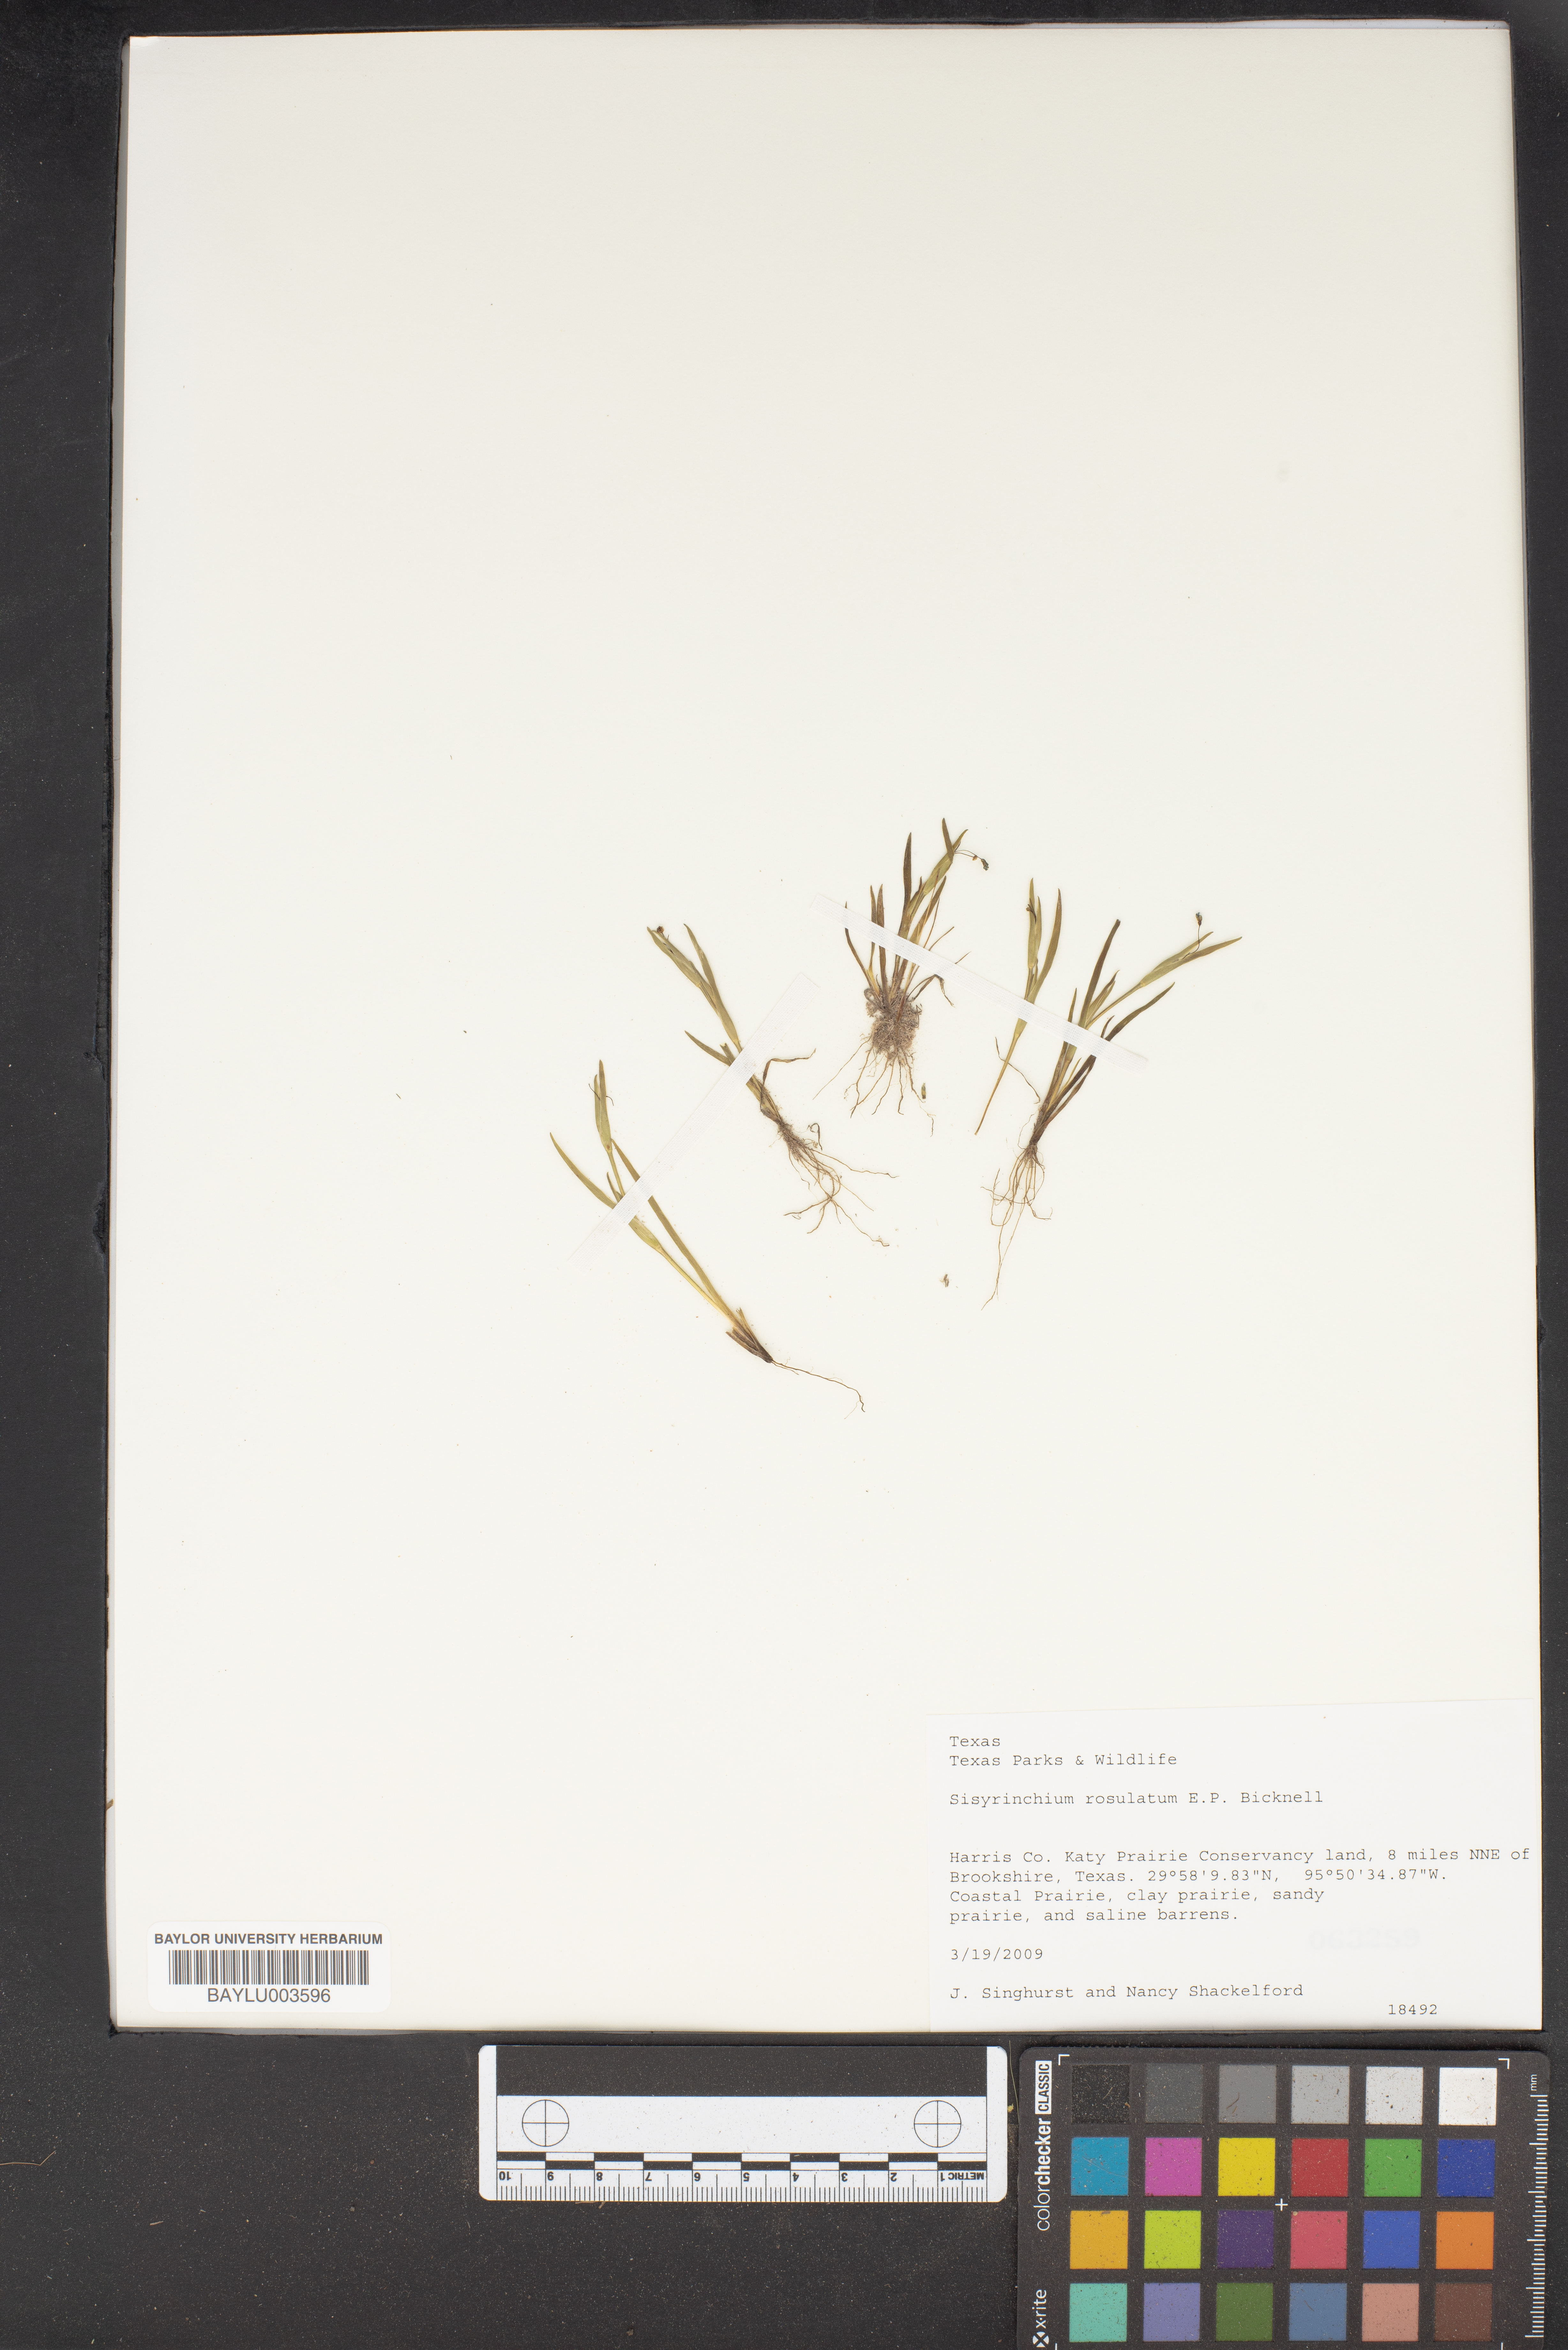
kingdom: Plantae
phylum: Tracheophyta
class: Liliopsida
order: Asparagales
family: Iridaceae
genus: Sisyrinchium
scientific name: Sisyrinchium rosulatum
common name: Annual blue-eyed grass
